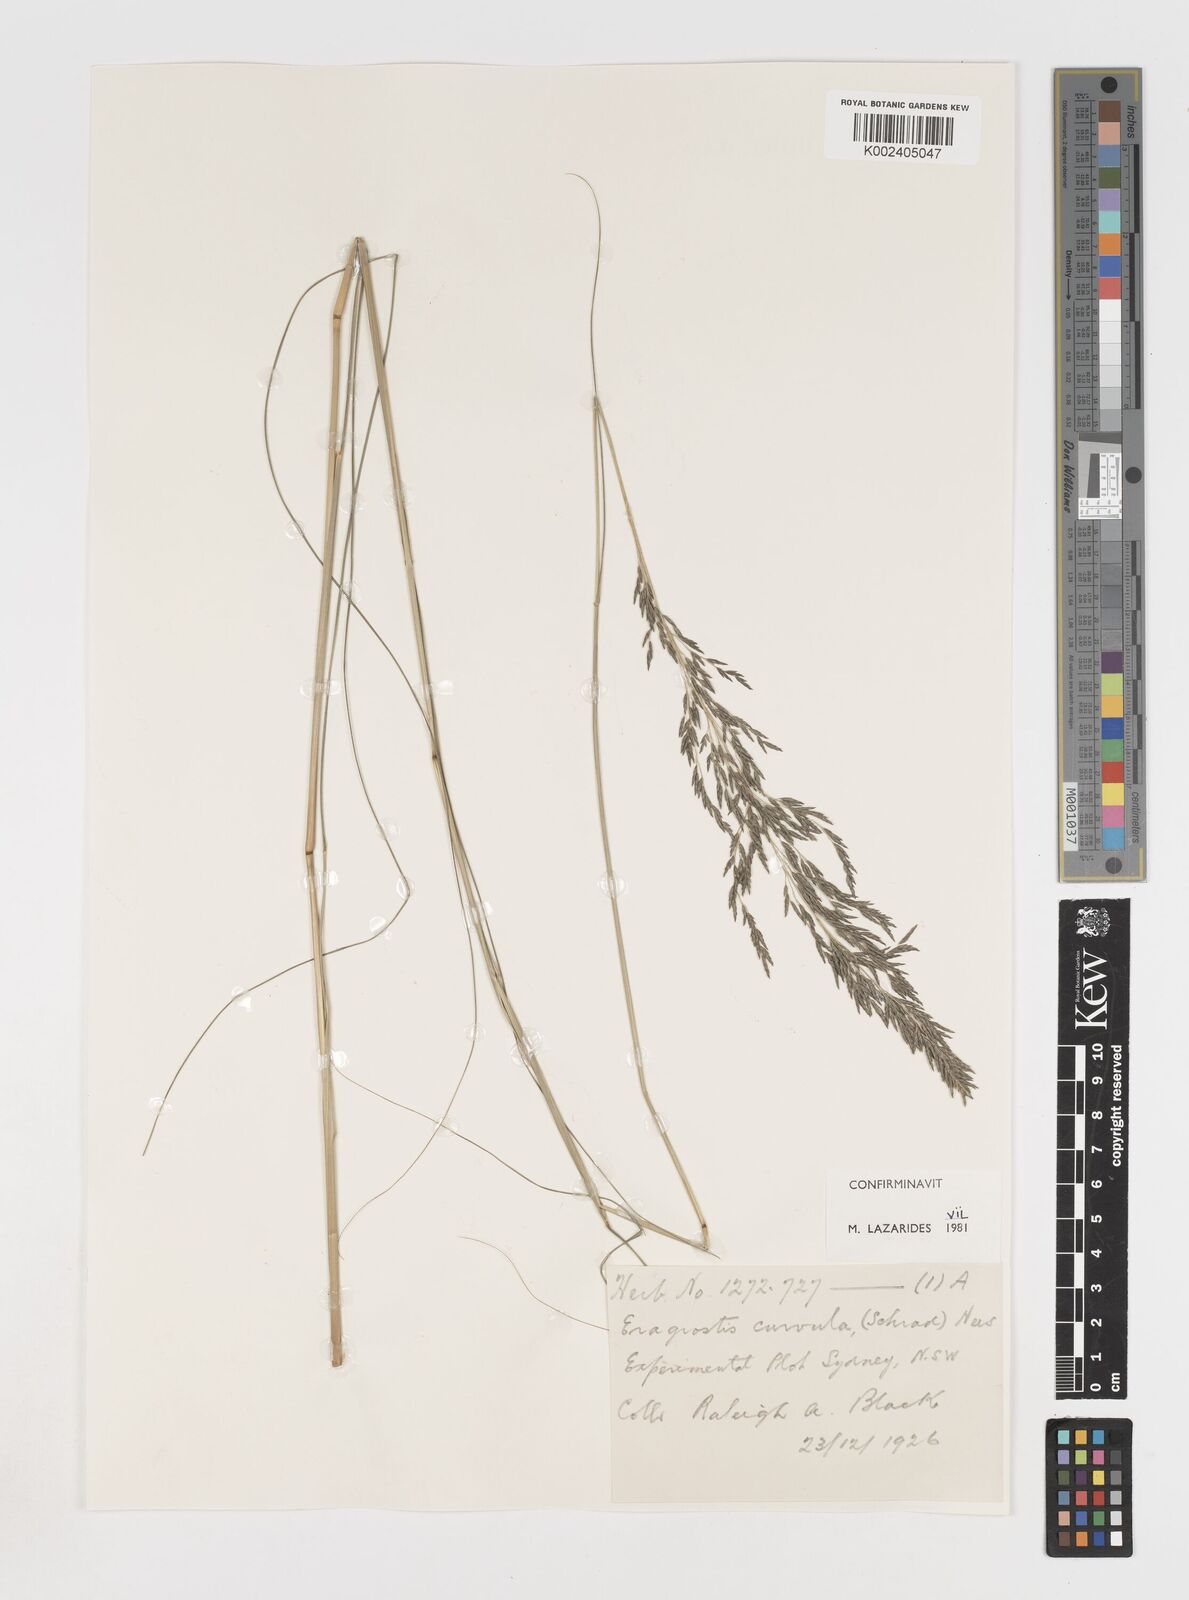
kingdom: Plantae
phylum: Tracheophyta
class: Liliopsida
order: Poales
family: Poaceae
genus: Eragrostis
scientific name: Eragrostis curvula
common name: African love-grass
